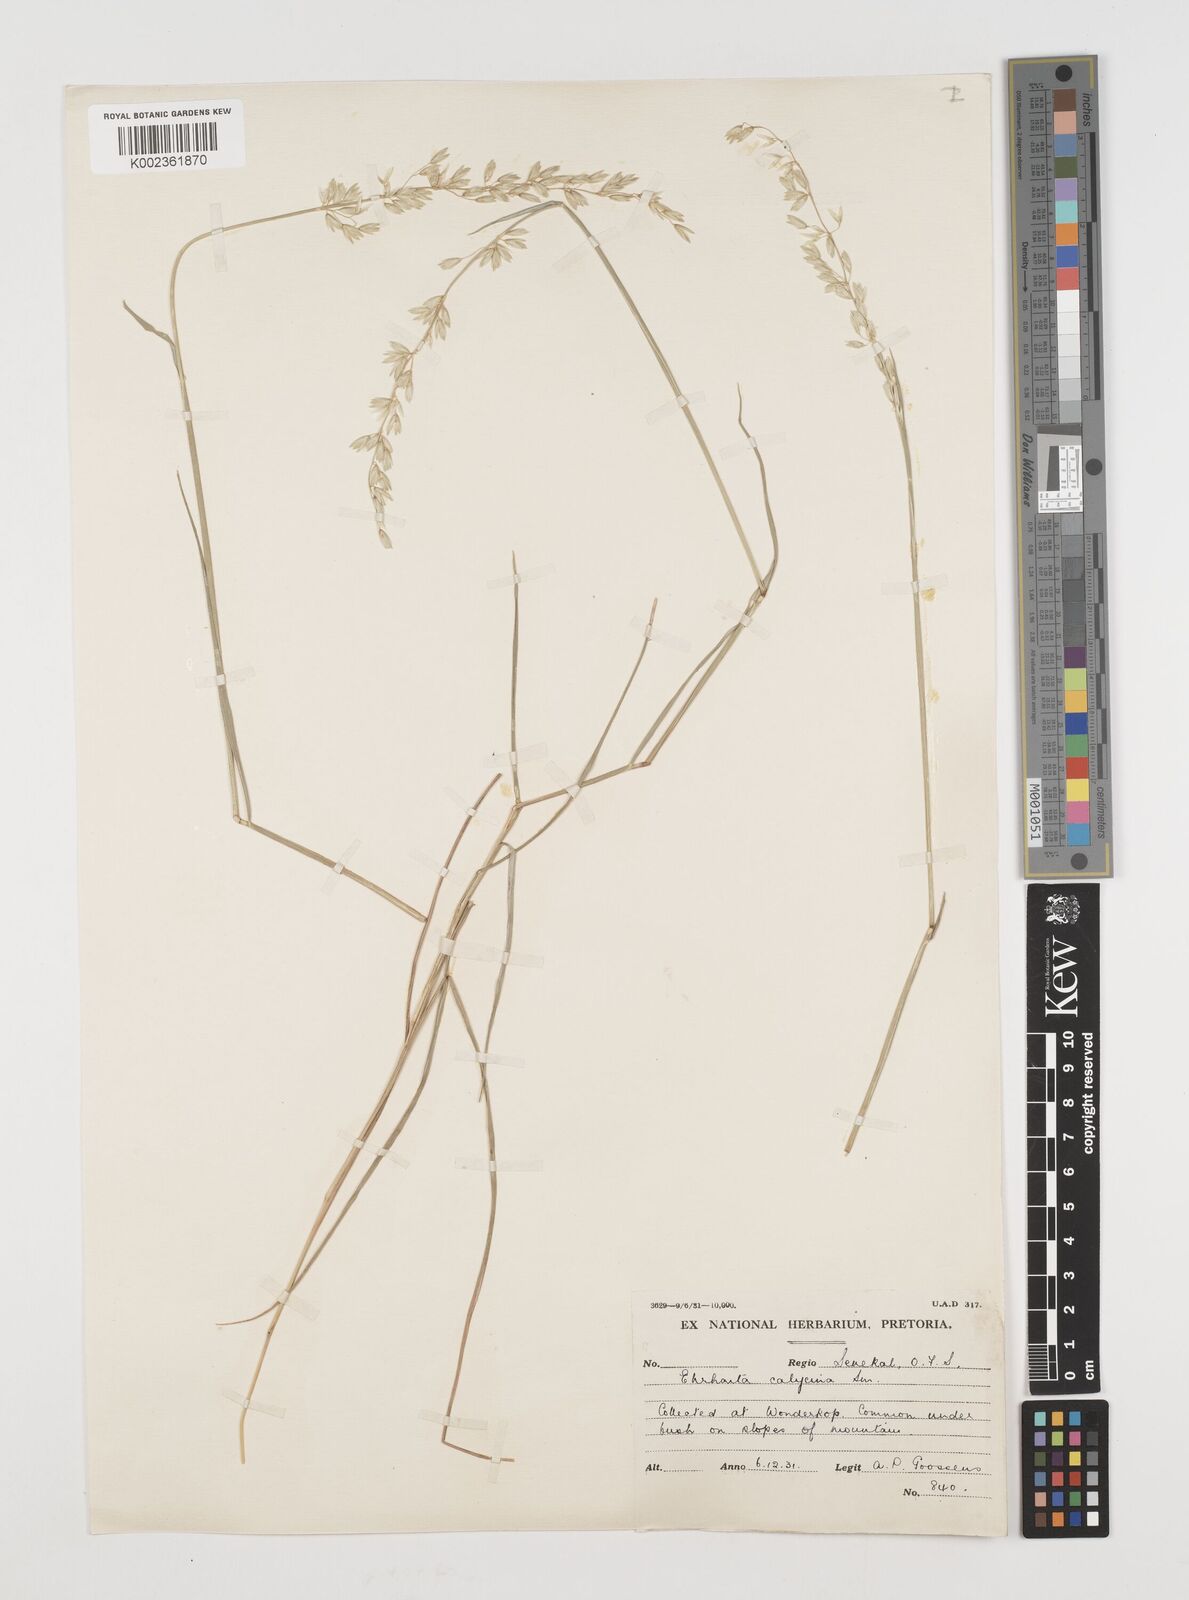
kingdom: Plantae
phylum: Tracheophyta
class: Liliopsida
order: Poales
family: Poaceae
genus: Ehrharta
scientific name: Ehrharta calycina
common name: Perennial veldtgrass
